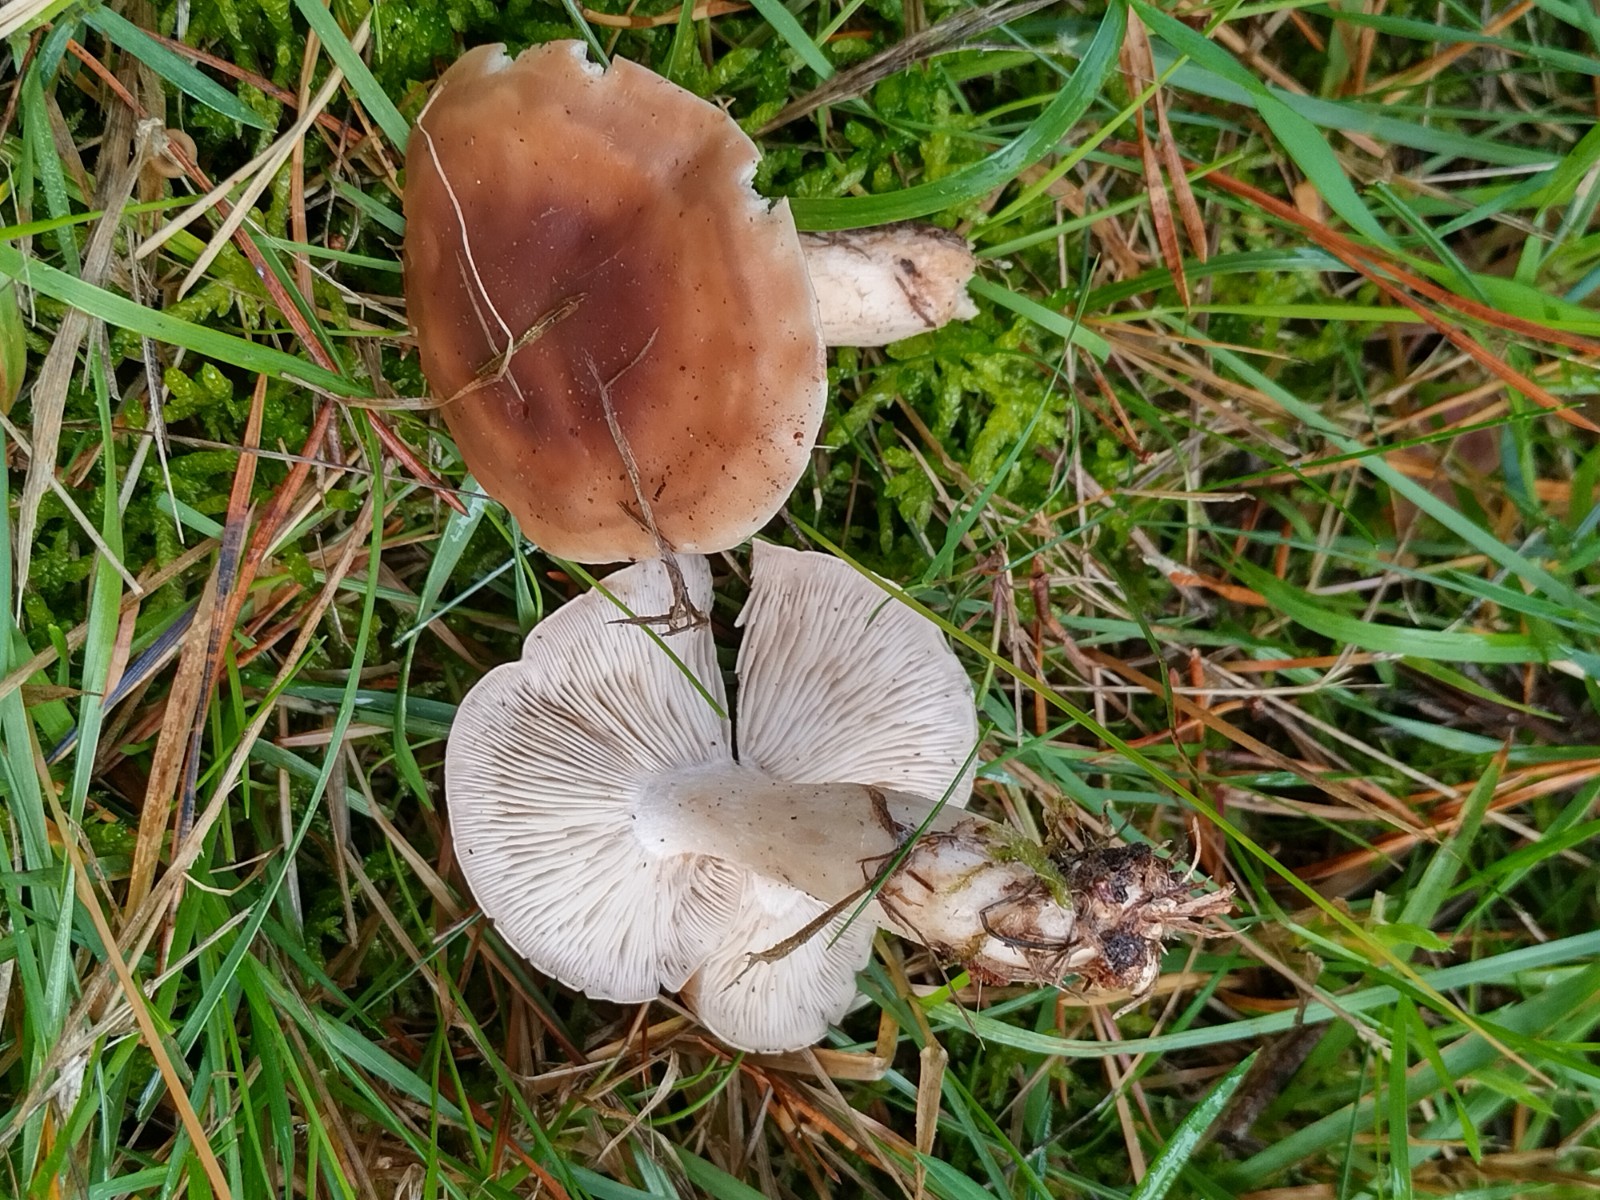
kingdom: Fungi
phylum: Basidiomycota
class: Agaricomycetes
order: Agaricales
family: Lyophyllaceae
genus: Gerhardtia
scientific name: Gerhardtia borealis
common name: rosabrun fagerhat
